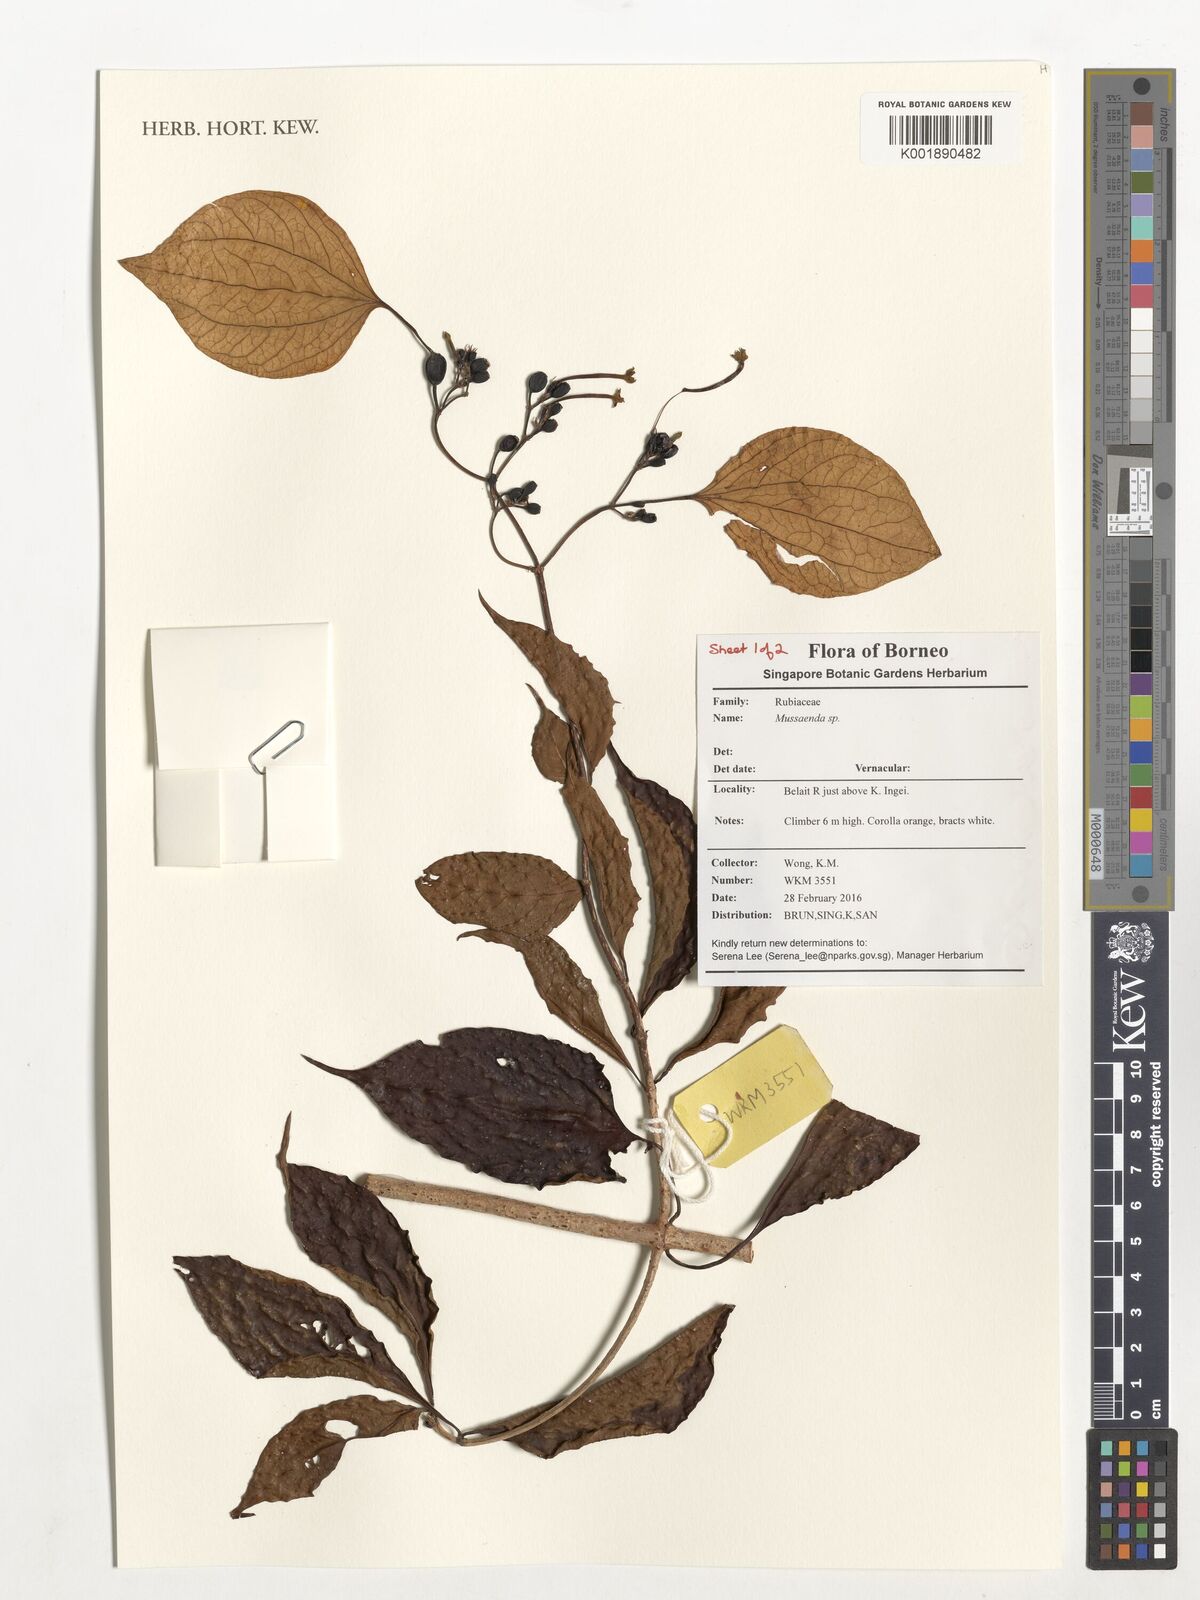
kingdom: Plantae
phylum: Tracheophyta
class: Magnoliopsida
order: Gentianales
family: Rubiaceae
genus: Mussaenda
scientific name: Mussaenda
